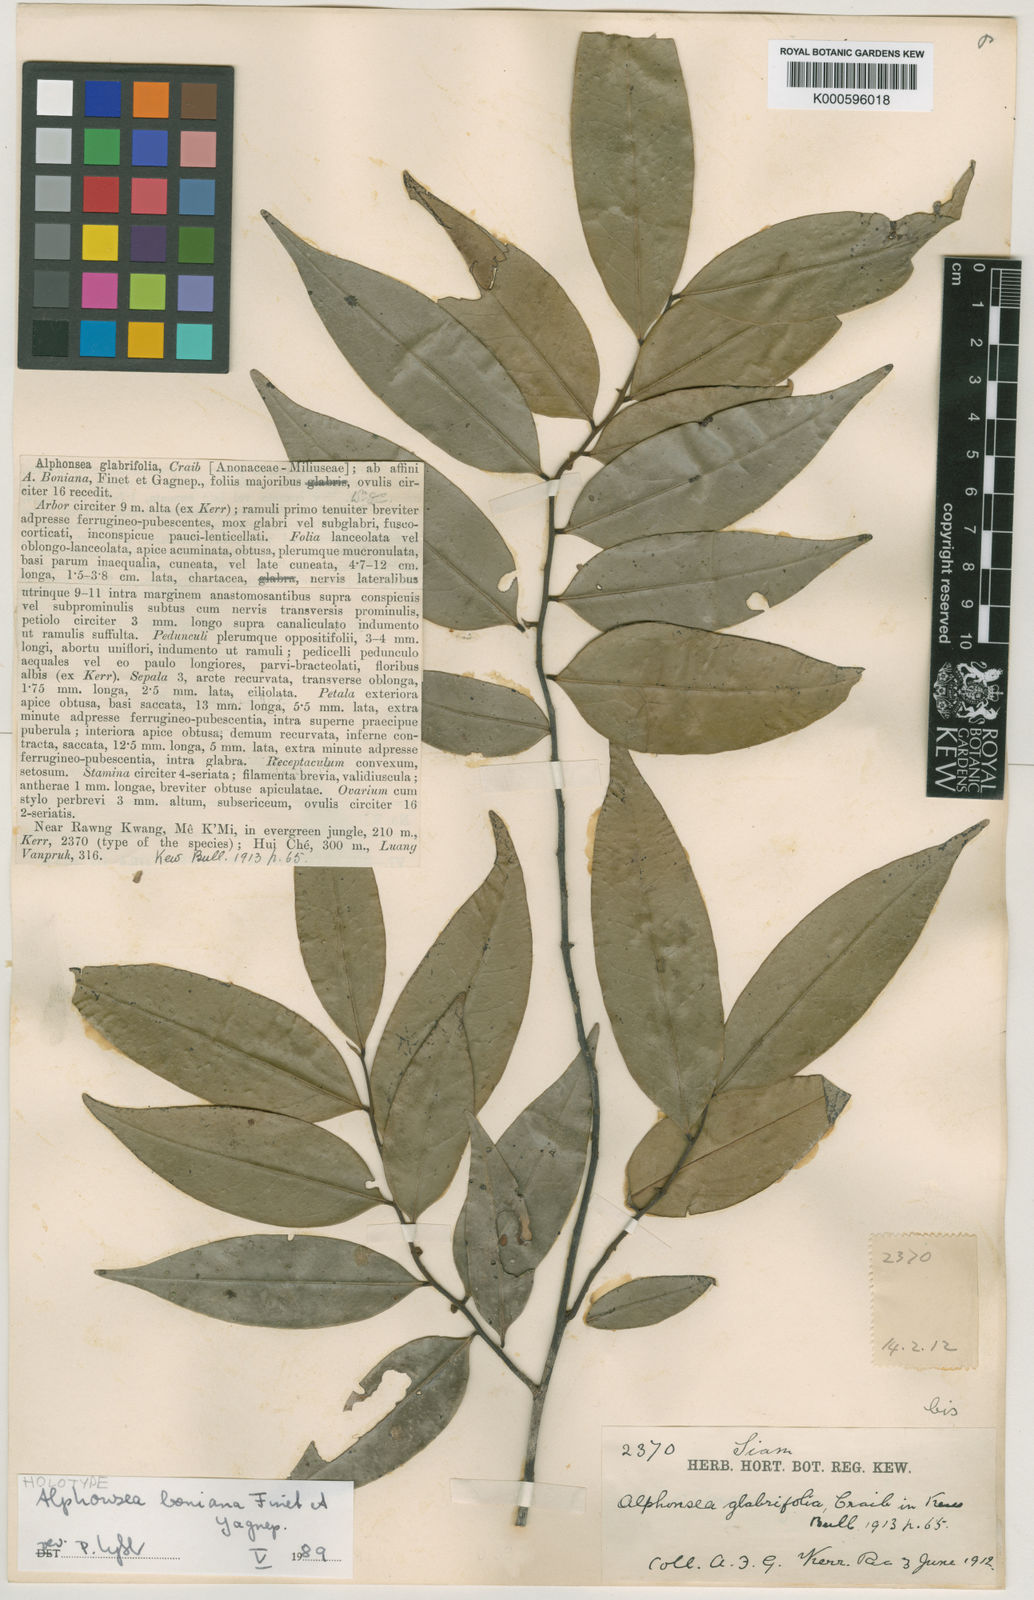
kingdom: Plantae
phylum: Tracheophyta
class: Magnoliopsida
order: Magnoliales
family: Annonaceae
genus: Alphonsea
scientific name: Alphonsea boniana
